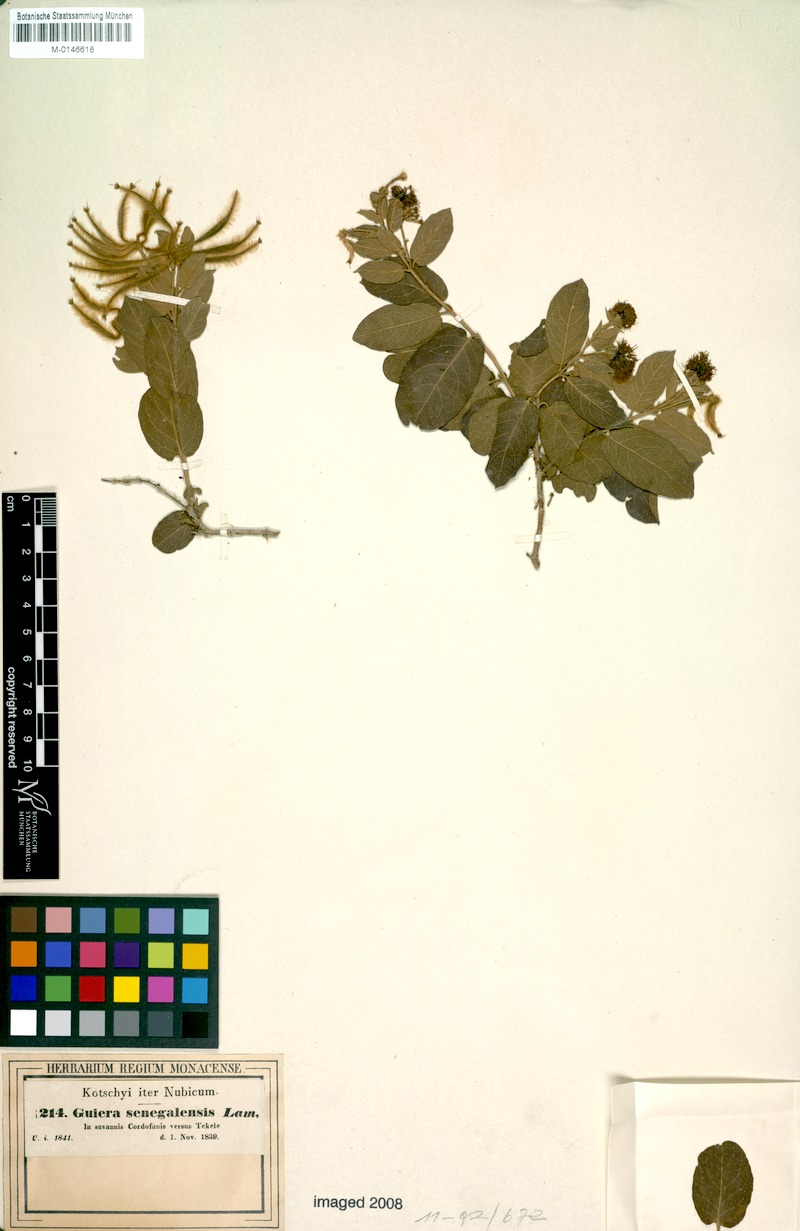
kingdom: Plantae
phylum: Tracheophyta
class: Magnoliopsida
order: Myrtales
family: Combretaceae
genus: Guiera
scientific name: Guiera senegalensis
